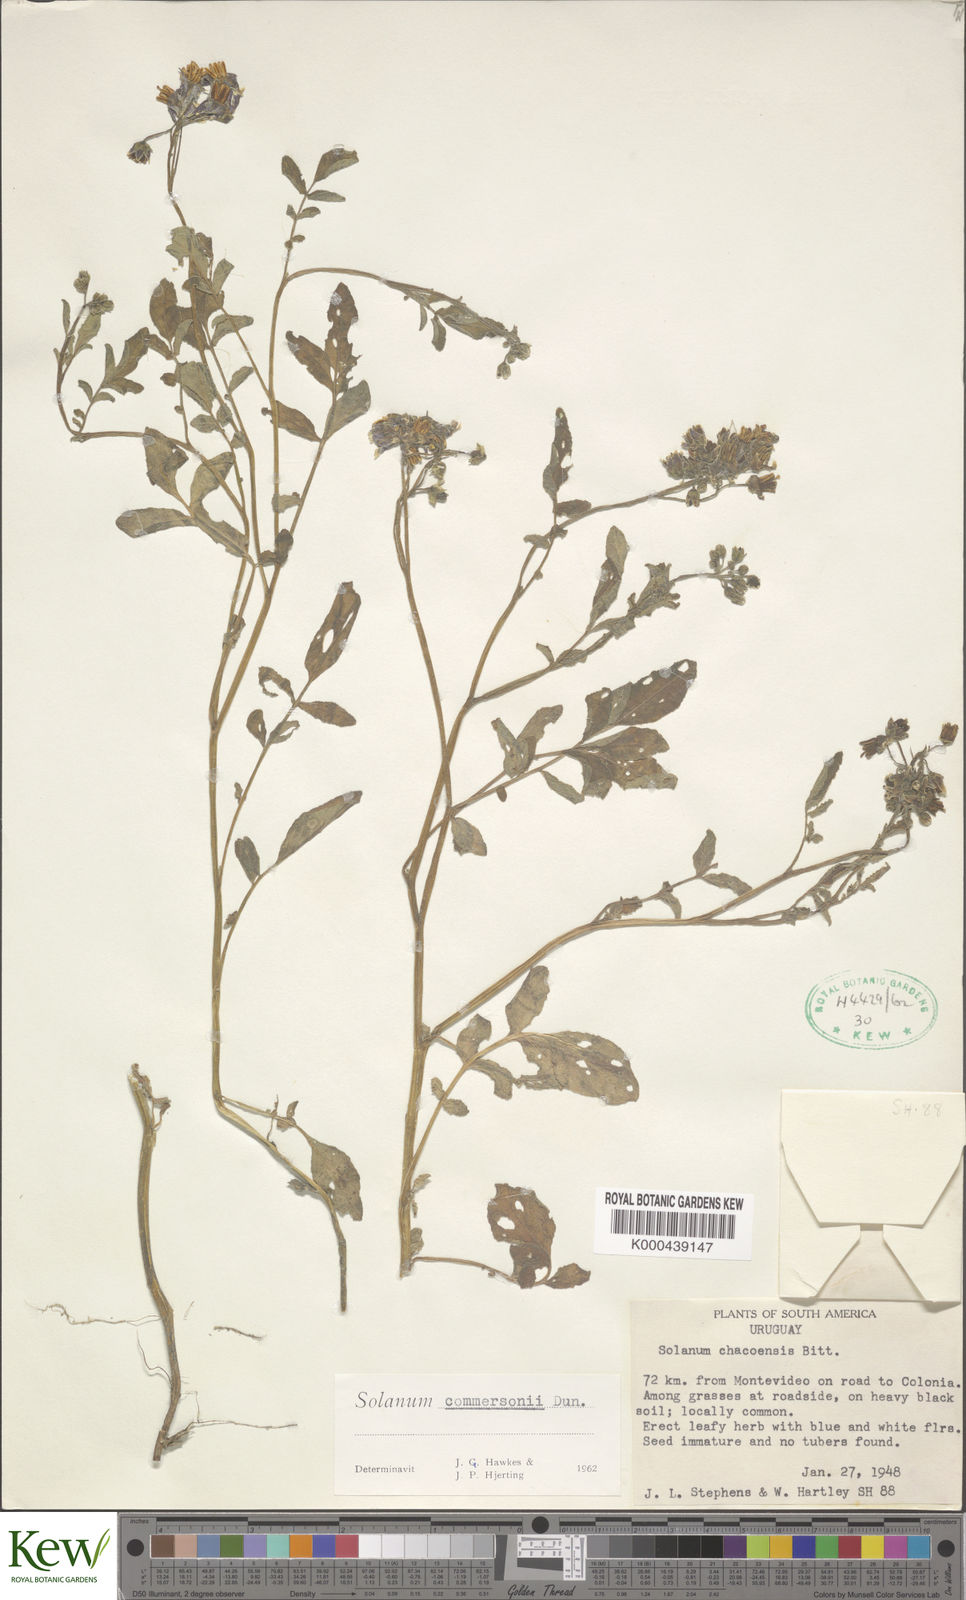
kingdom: Plantae
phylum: Tracheophyta
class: Magnoliopsida
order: Solanales
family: Solanaceae
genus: Solanum
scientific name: Solanum commersonii
